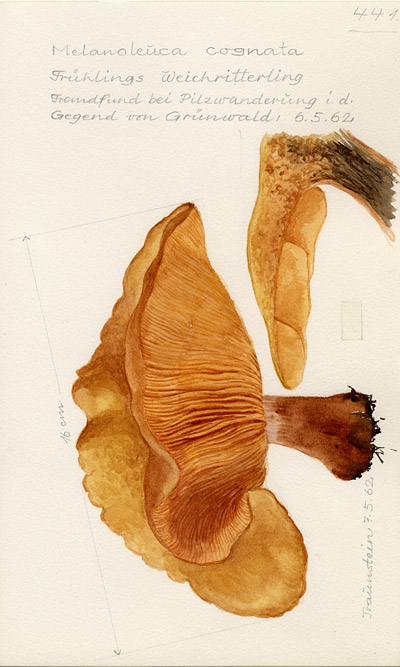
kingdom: Fungi
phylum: Basidiomycota
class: Agaricomycetes
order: Agaricales
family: Tricholomataceae
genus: Melanoleuca
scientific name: Melanoleuca cognata
